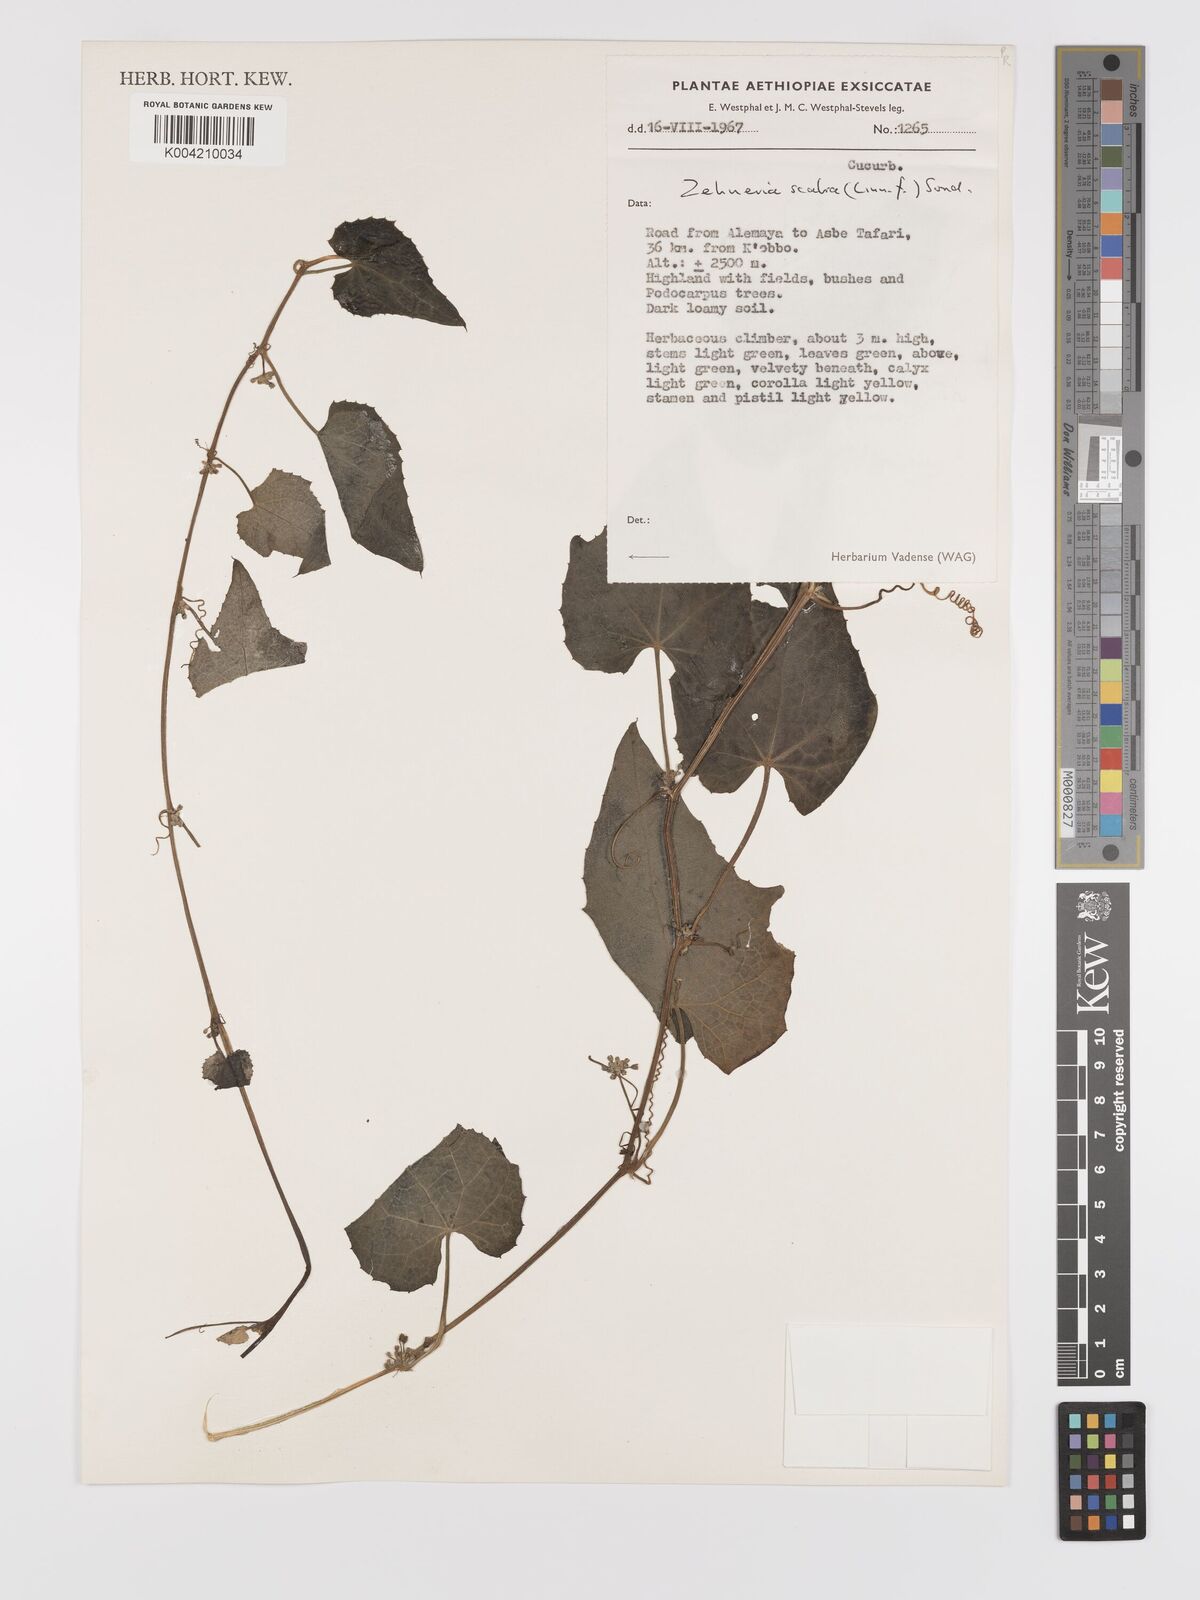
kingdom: Plantae
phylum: Tracheophyta
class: Magnoliopsida
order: Cucurbitales
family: Cucurbitaceae
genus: Zehneria
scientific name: Zehneria scabra
